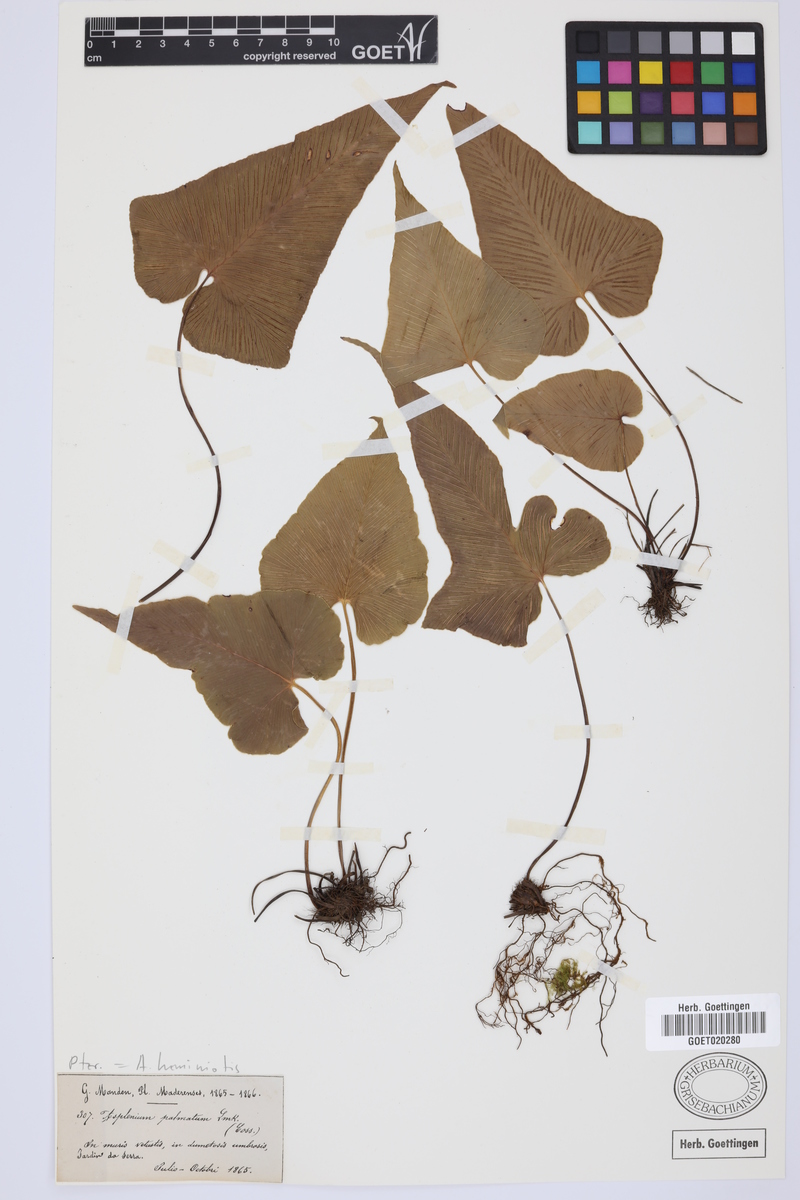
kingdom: Plantae
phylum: Tracheophyta
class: Polypodiopsida
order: Polypodiales
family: Aspleniaceae
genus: Asplenium
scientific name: Asplenium hemionitis
